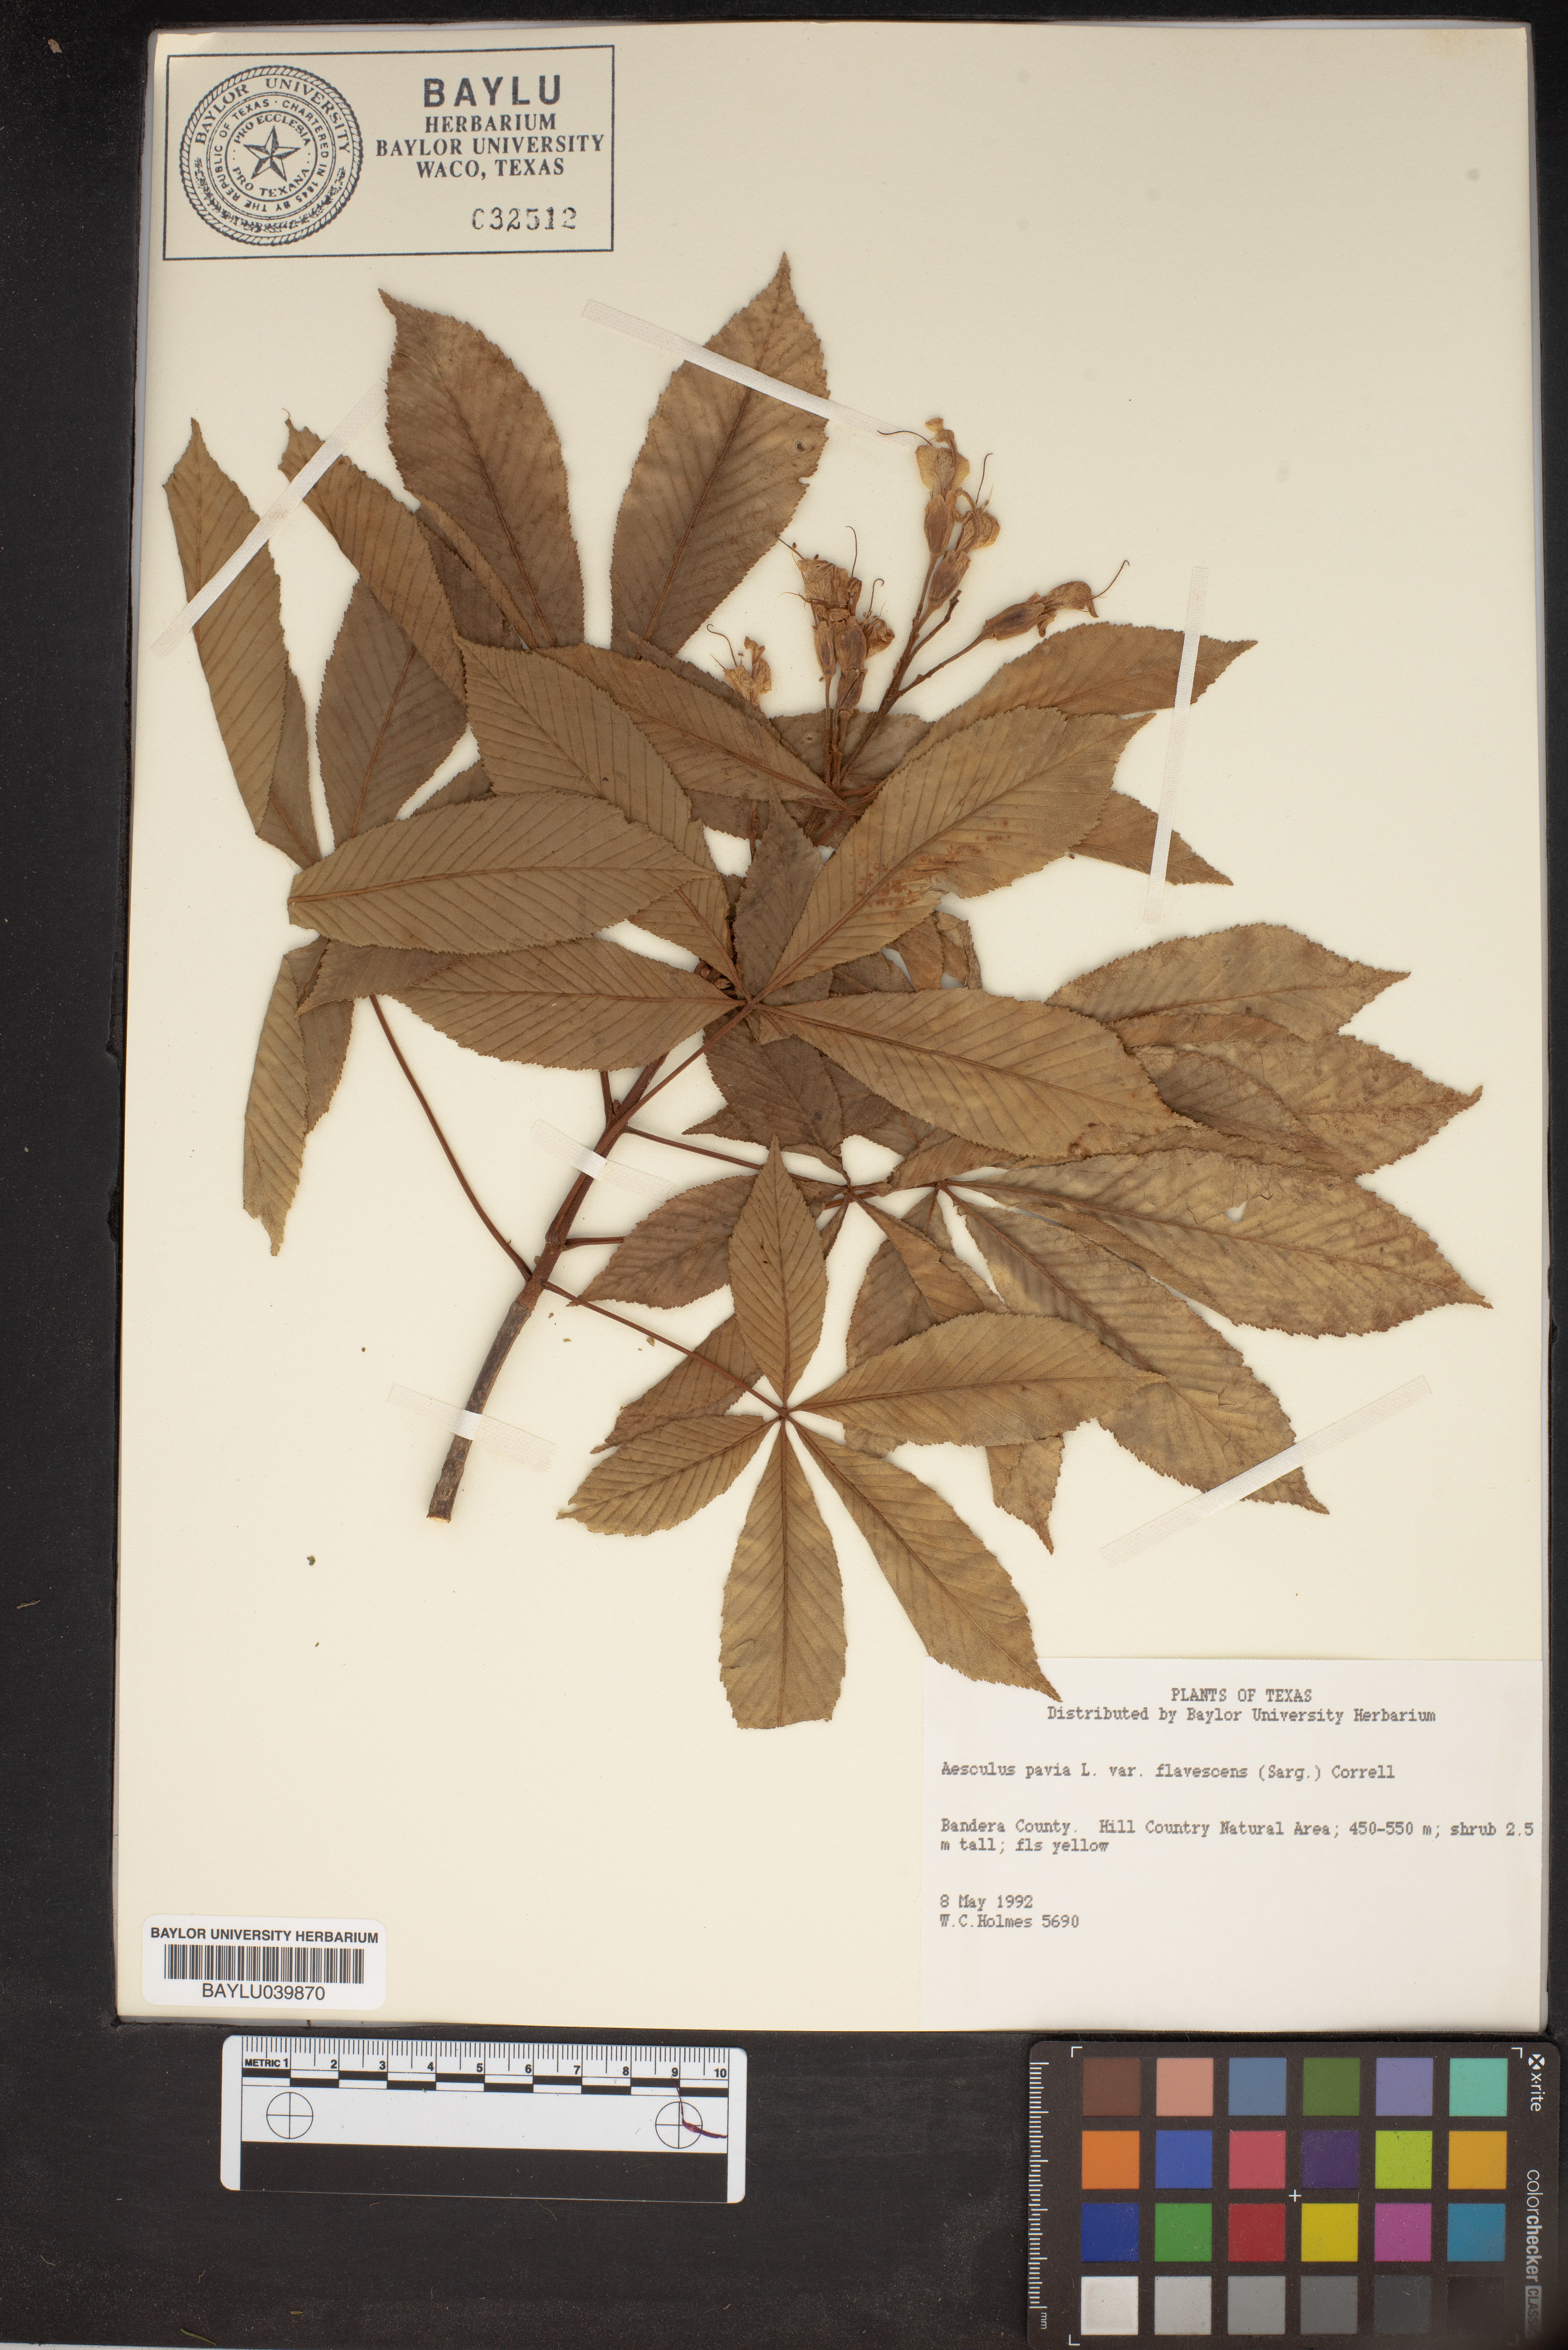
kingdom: Plantae
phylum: Tracheophyta
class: Magnoliopsida
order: Sapindales
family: Sapindaceae
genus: Aesculus
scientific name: Aesculus pavia
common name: Red buckeye
